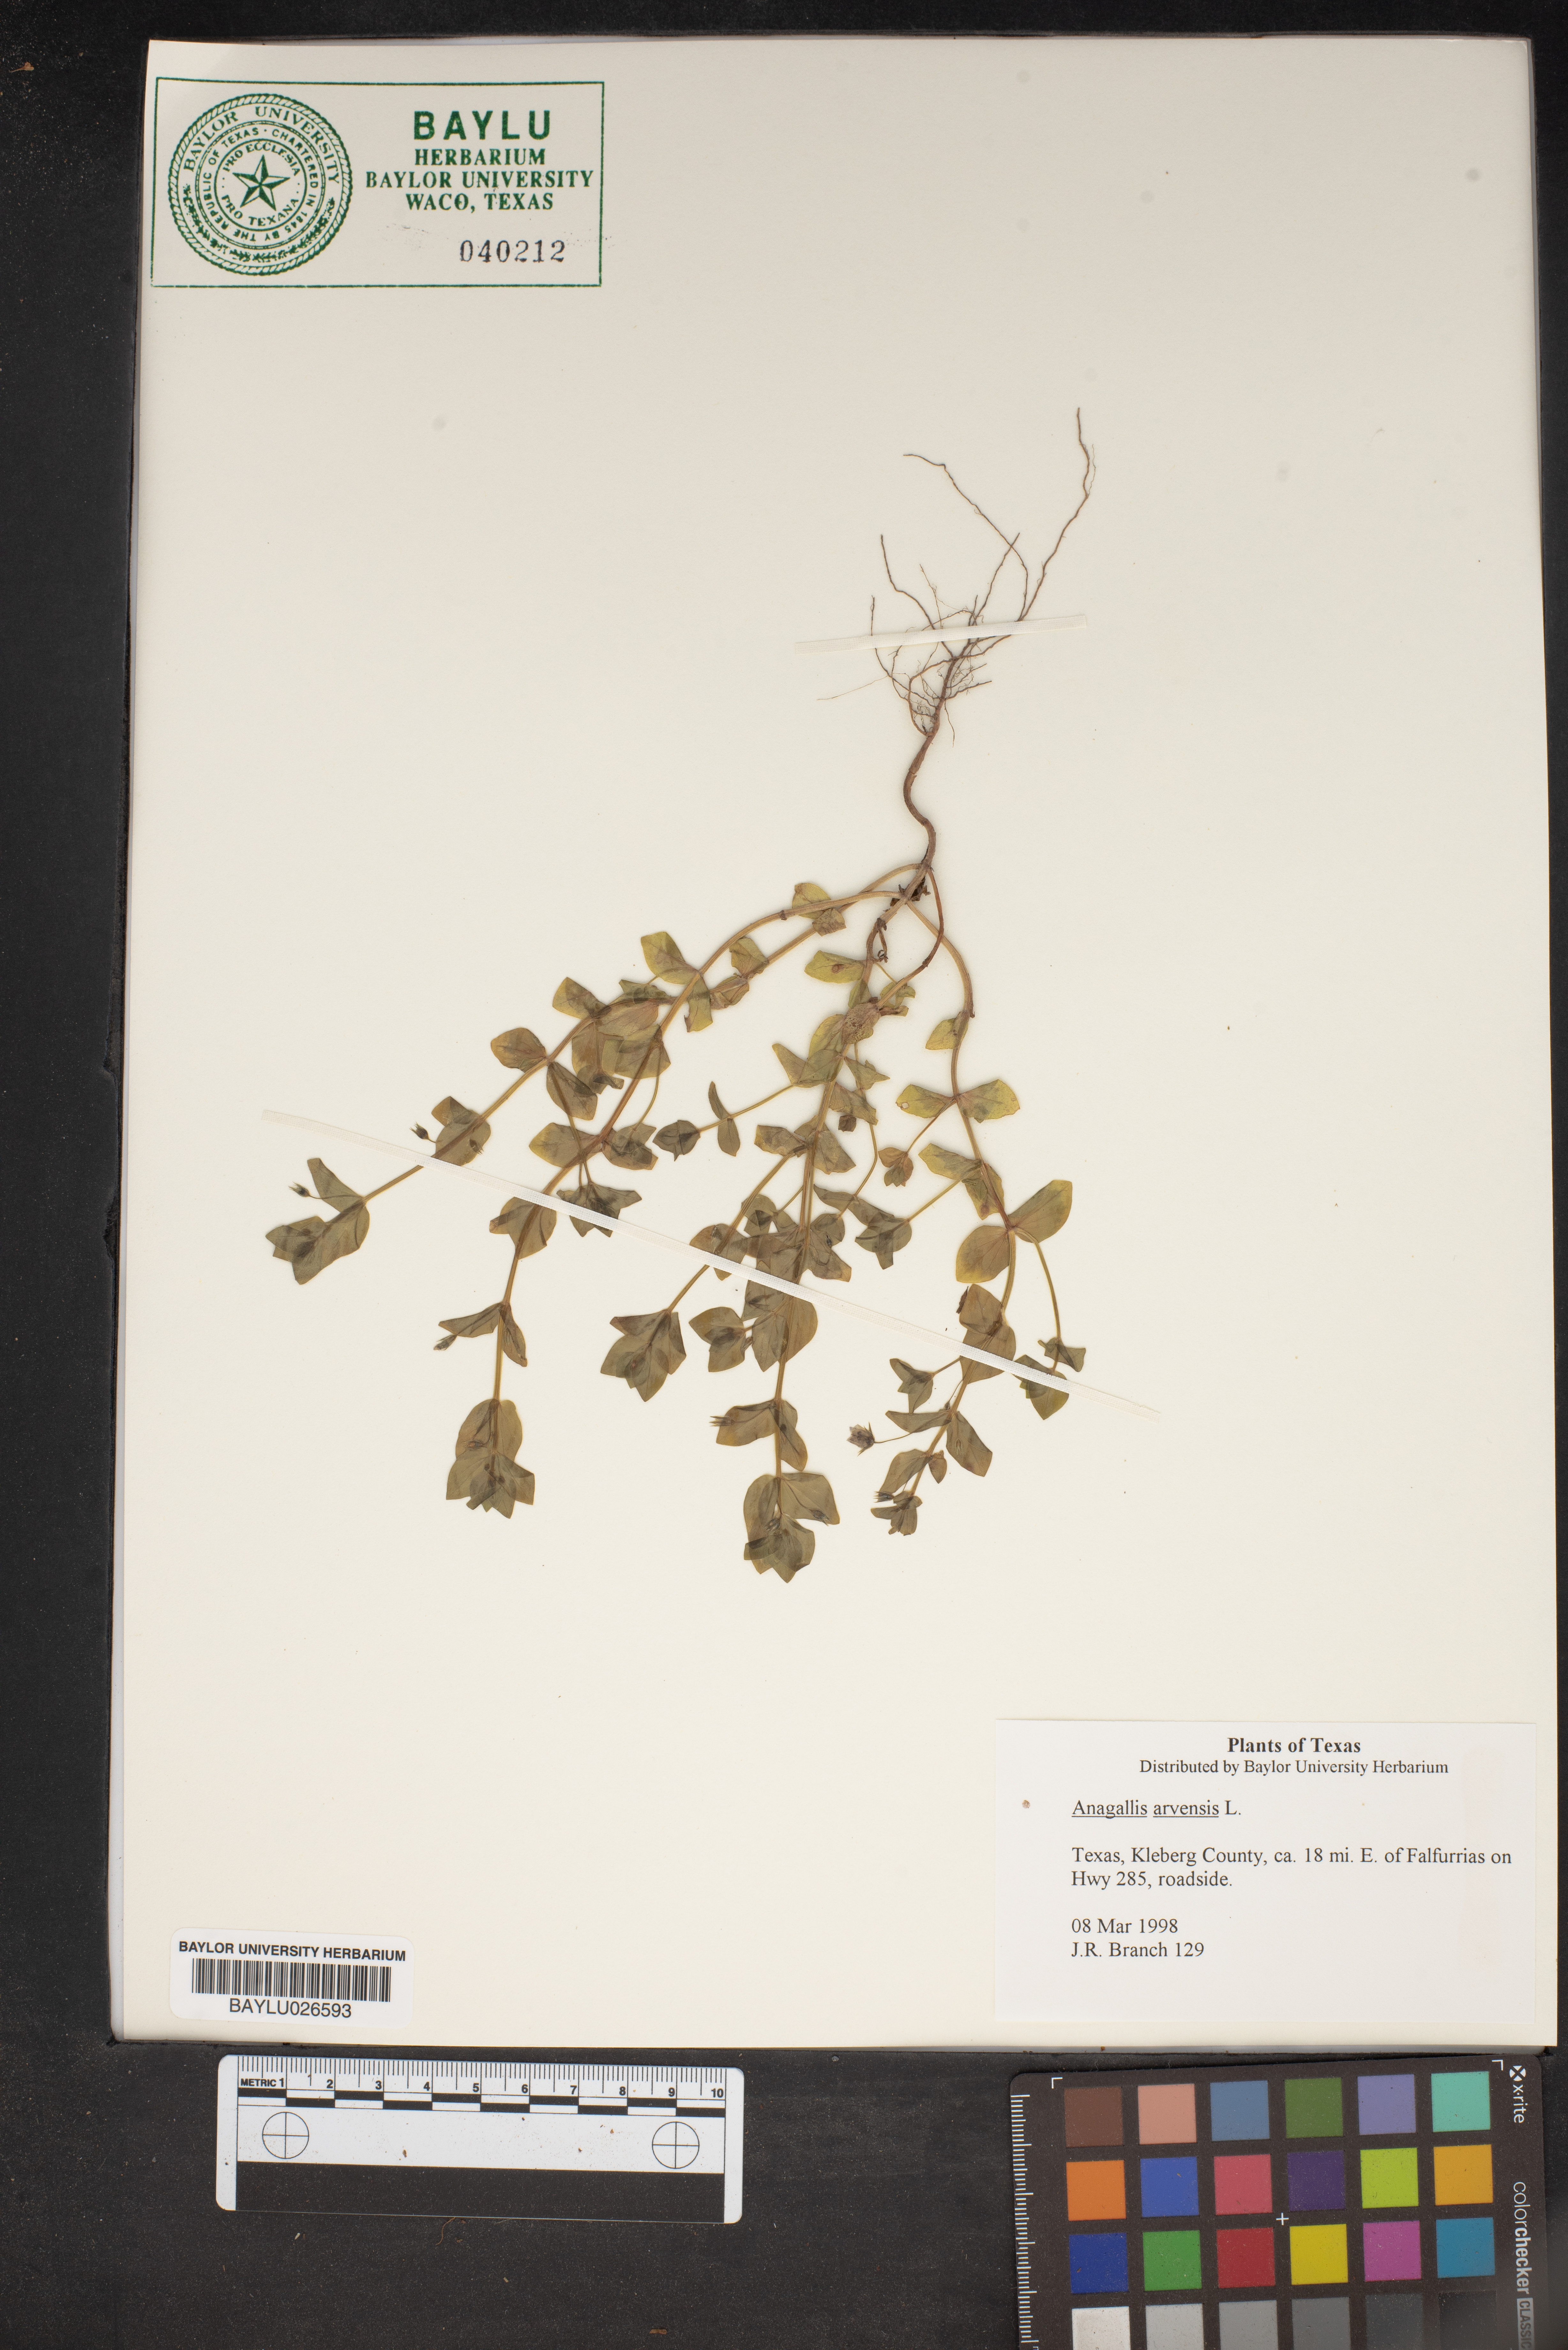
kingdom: Plantae
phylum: Tracheophyta
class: Magnoliopsida
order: Ericales
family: Primulaceae
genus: Lysimachia
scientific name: Lysimachia arvensis
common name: Scarlet pimpernel
